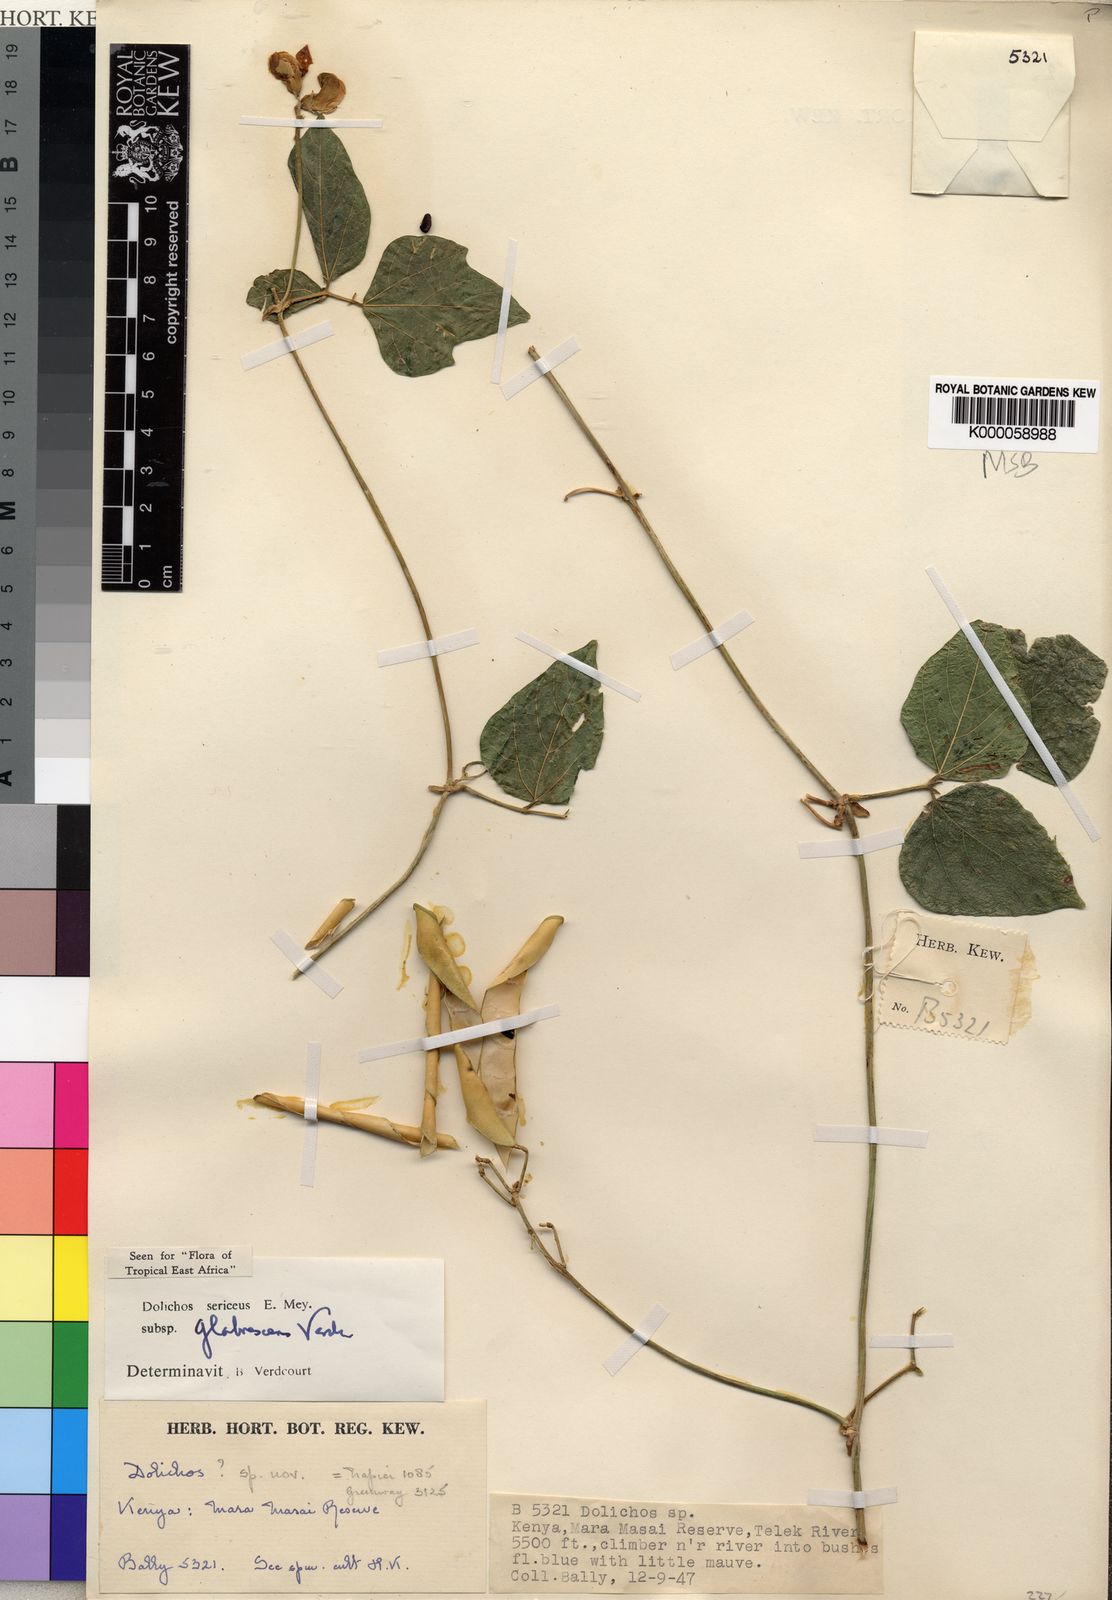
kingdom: Plantae
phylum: Tracheophyta
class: Magnoliopsida
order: Fabales
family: Fabaceae
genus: Dolichos
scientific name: Dolichos sericeus
